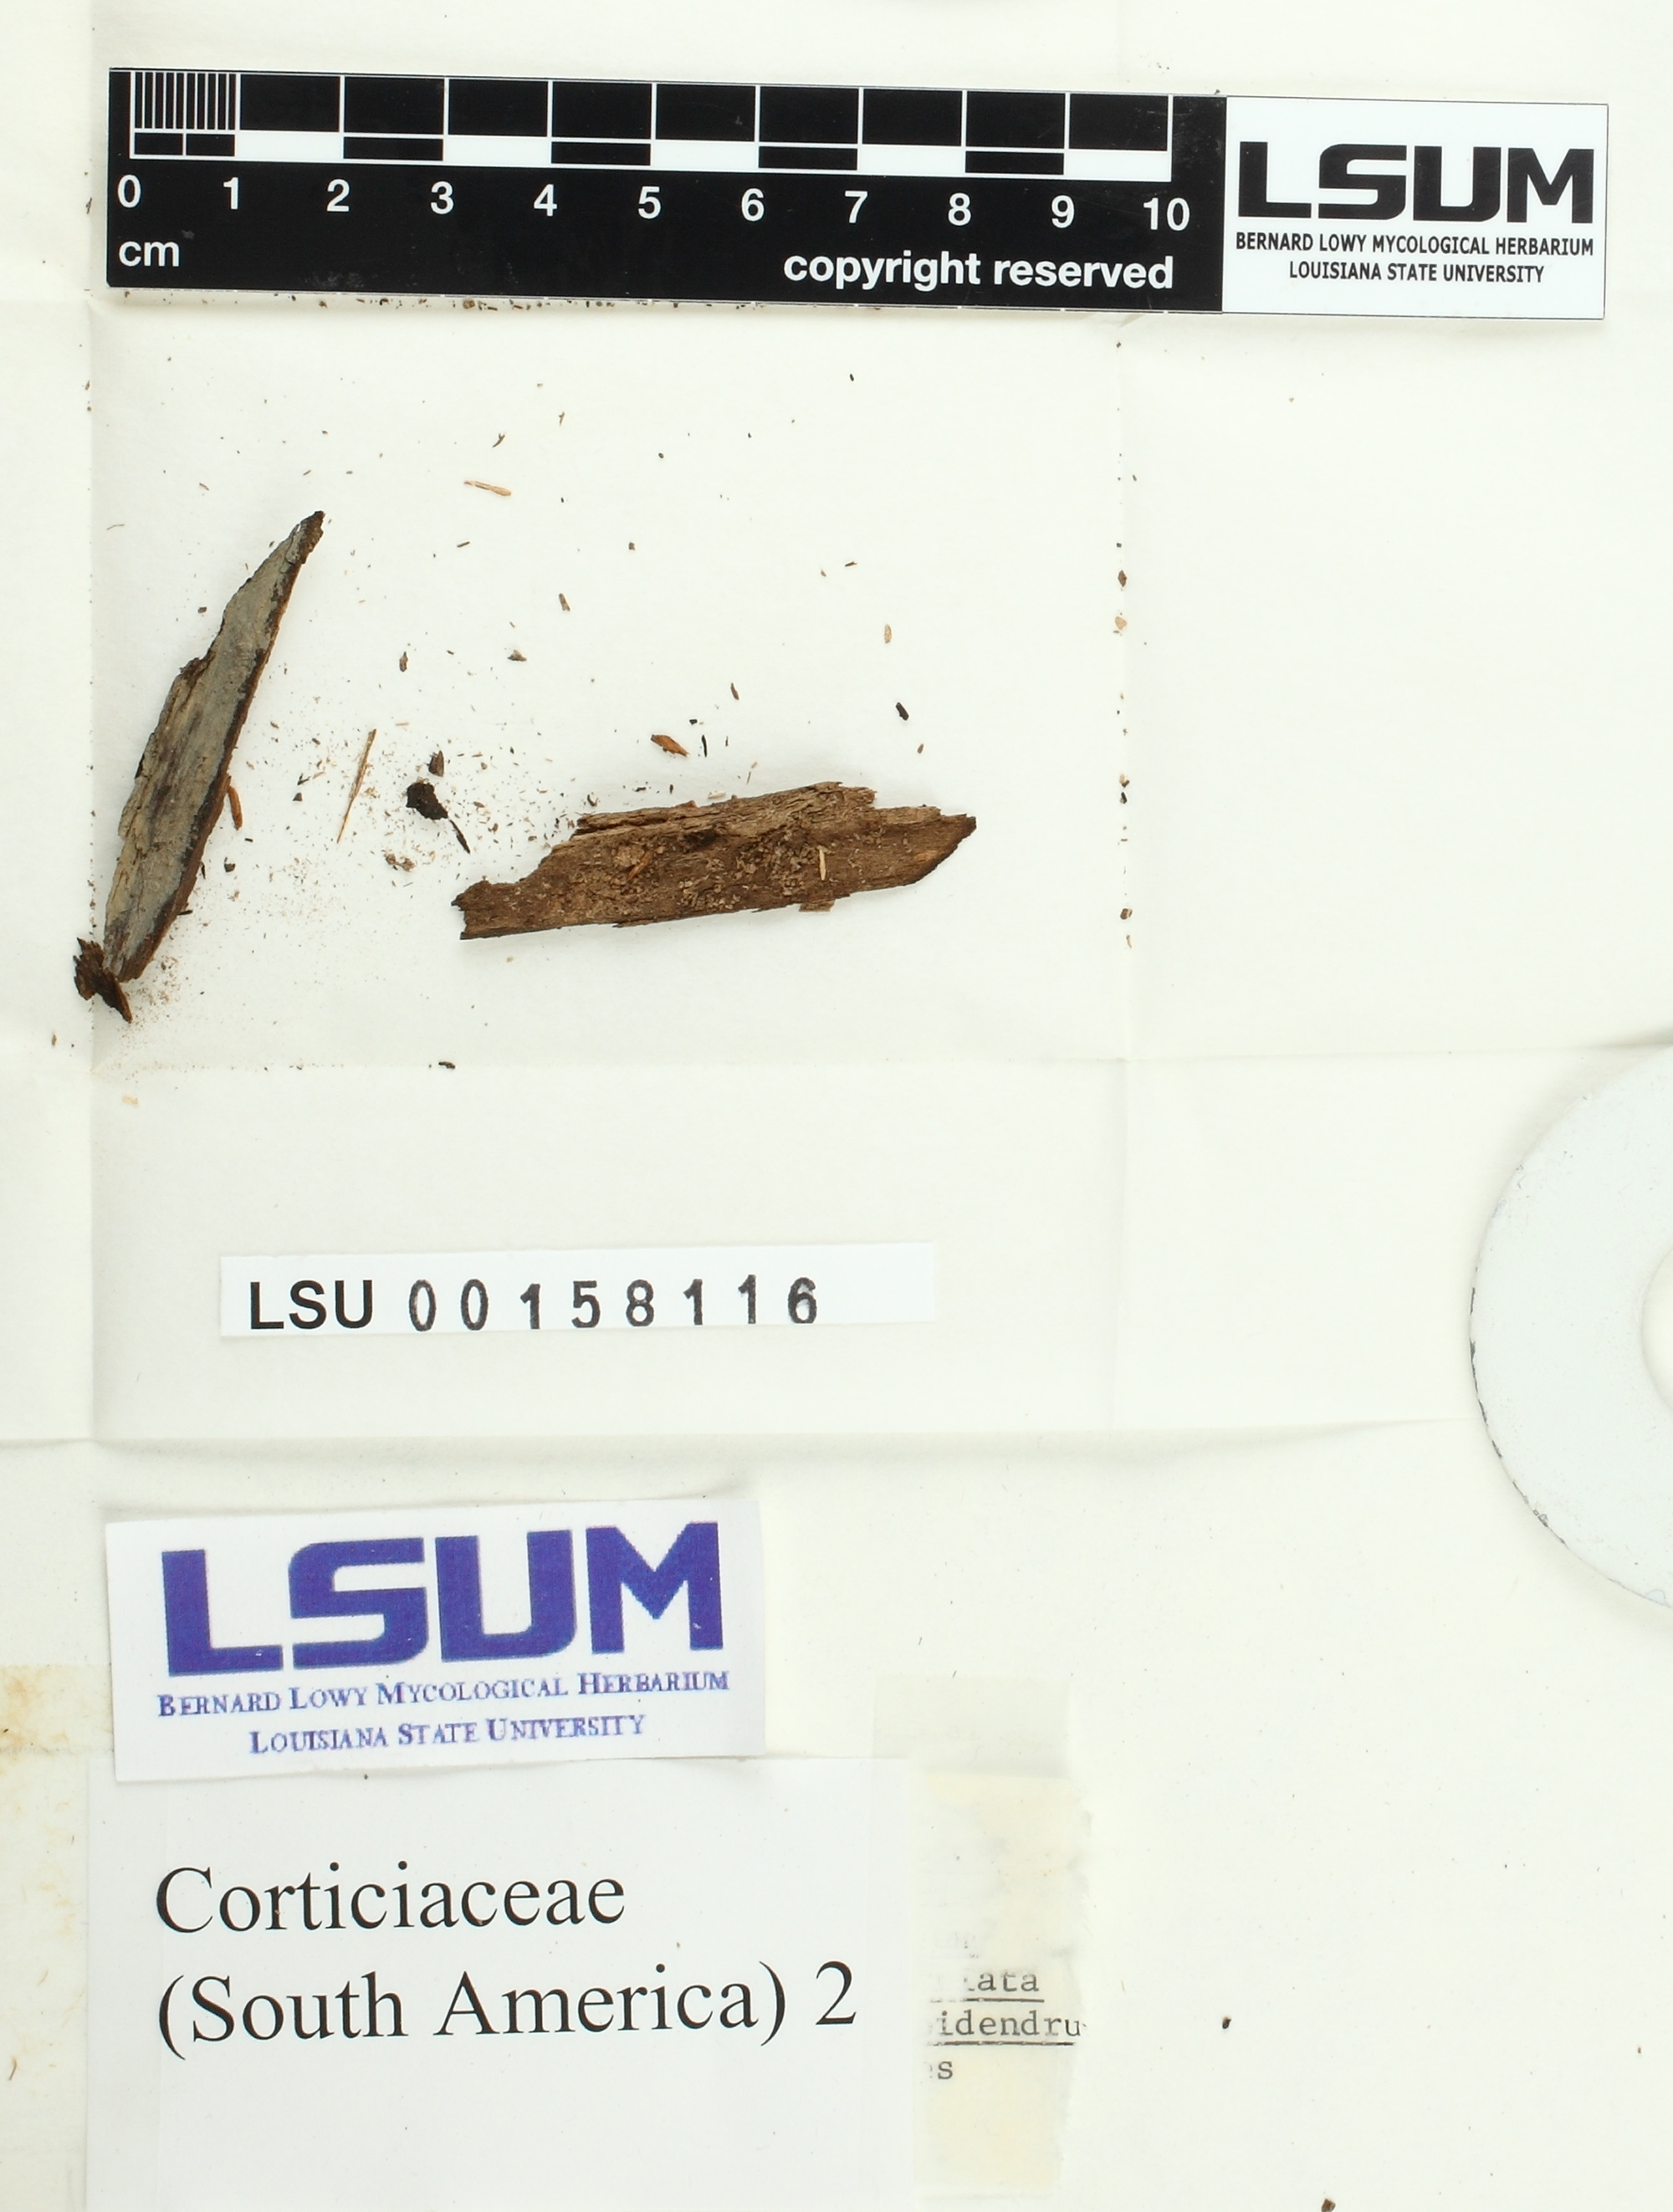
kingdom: Fungi
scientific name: Fungi
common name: Fungi
